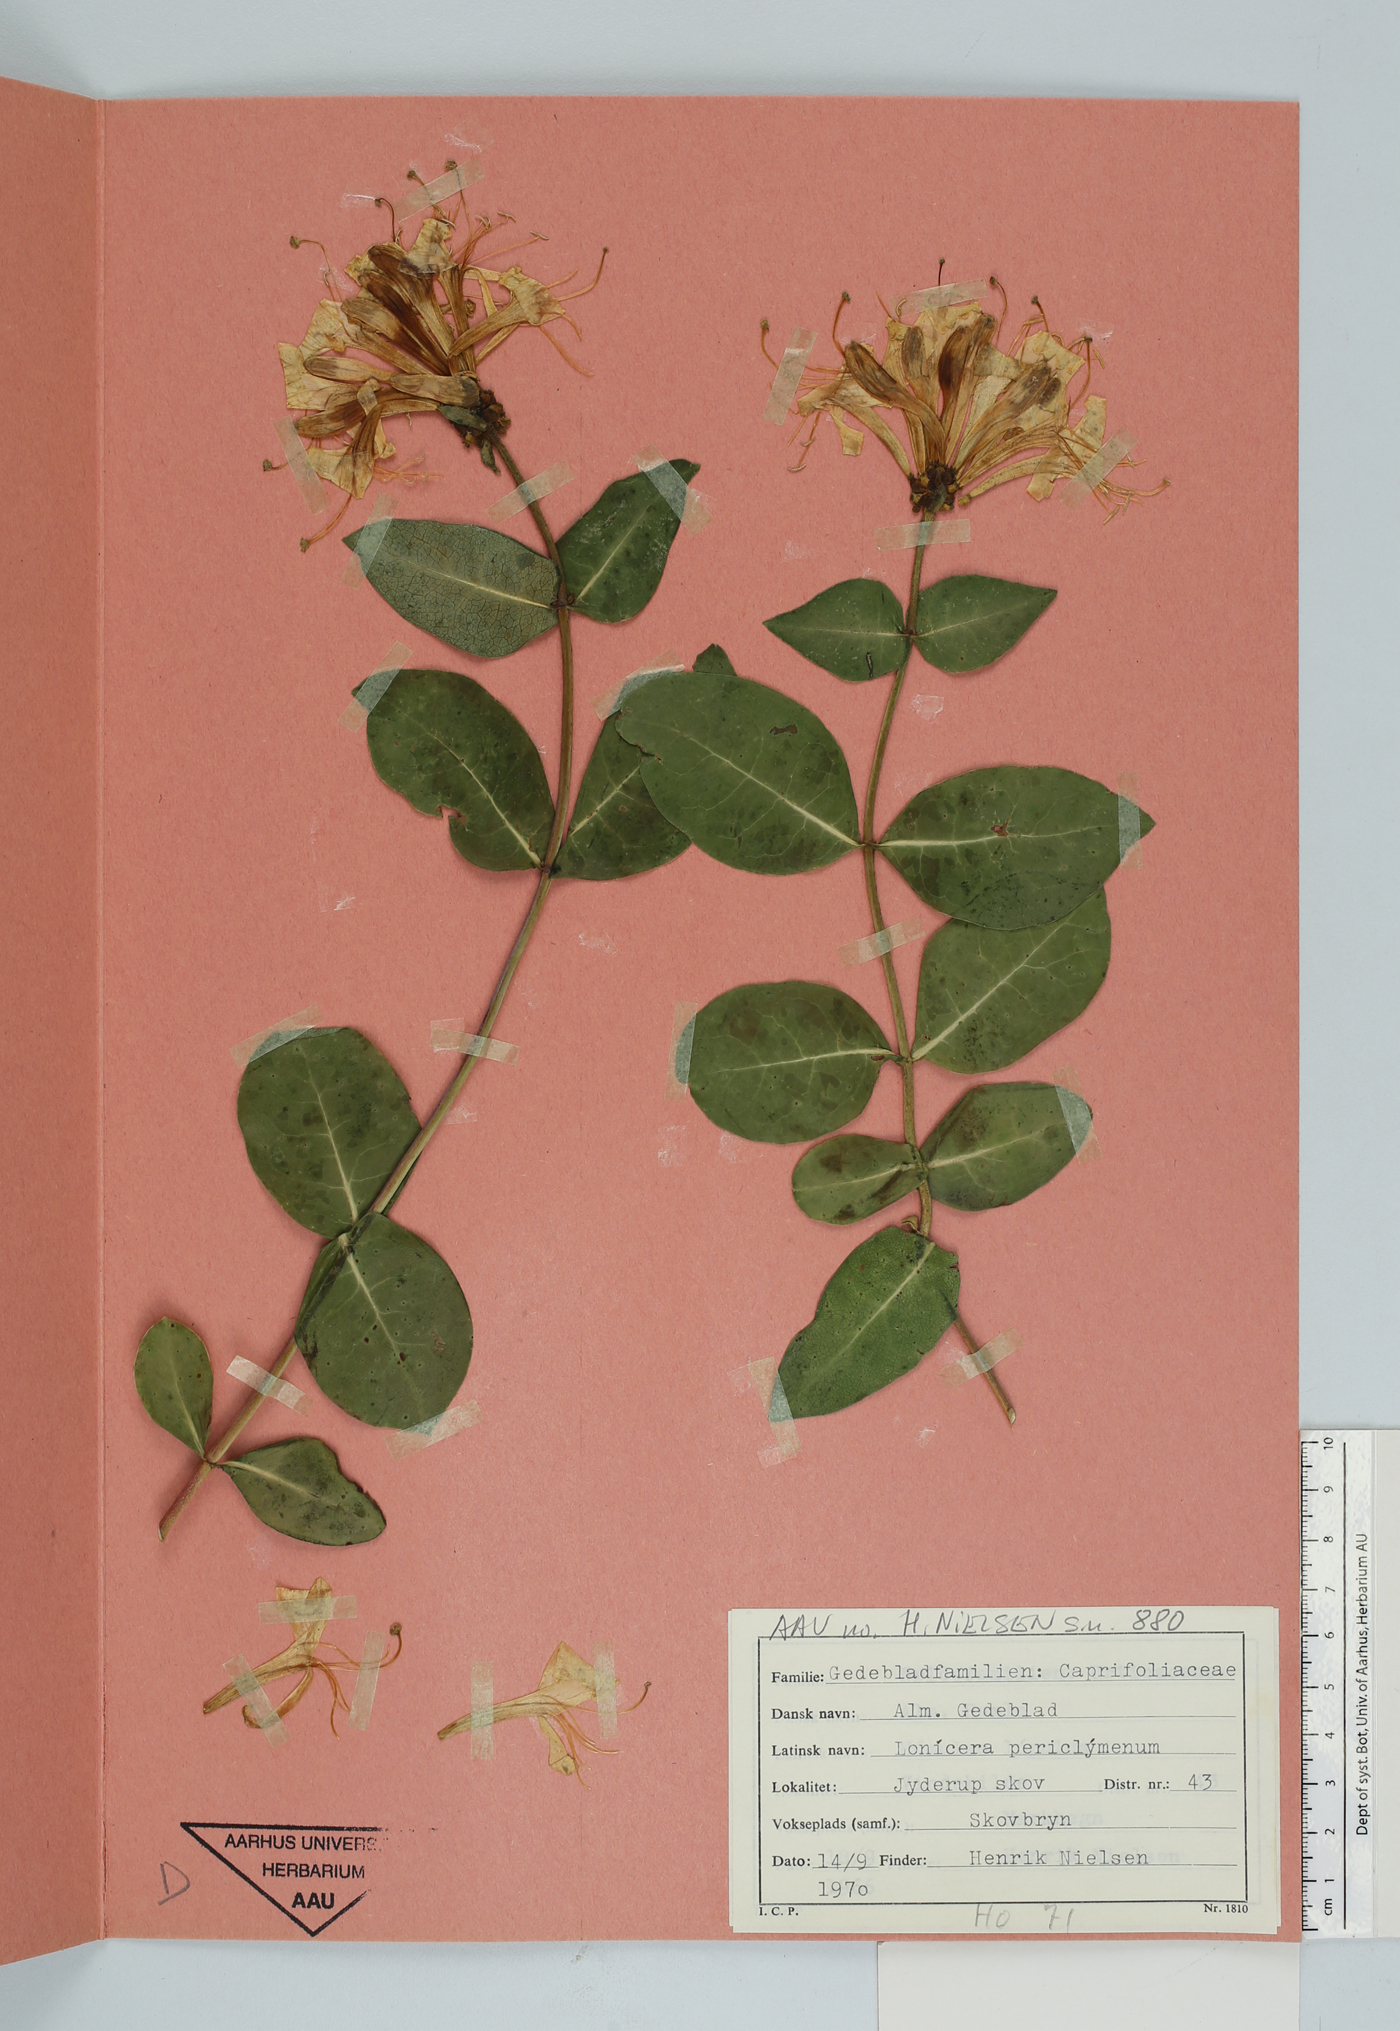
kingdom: Plantae
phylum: Tracheophyta
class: Magnoliopsida
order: Dipsacales
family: Caprifoliaceae
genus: Lonicera
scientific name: Lonicera periclymenum
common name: European honeysuckle
